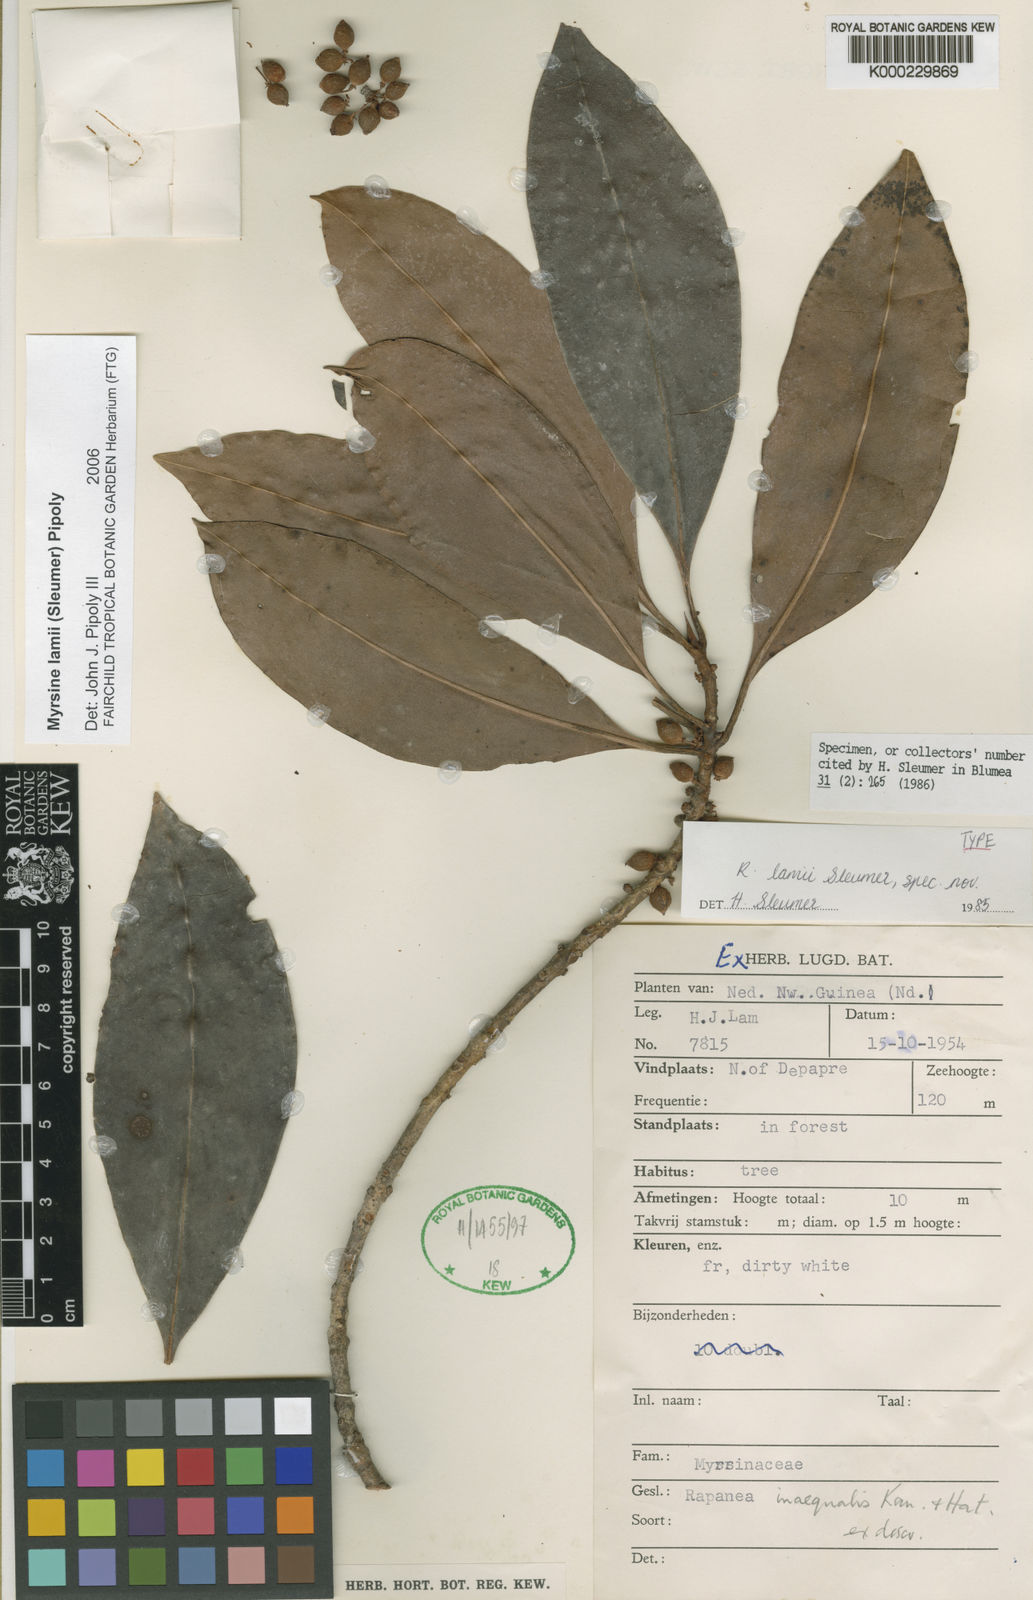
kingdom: Plantae
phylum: Tracheophyta
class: Magnoliopsida
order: Ericales
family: Primulaceae
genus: Myrsine
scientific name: Myrsine lamii
